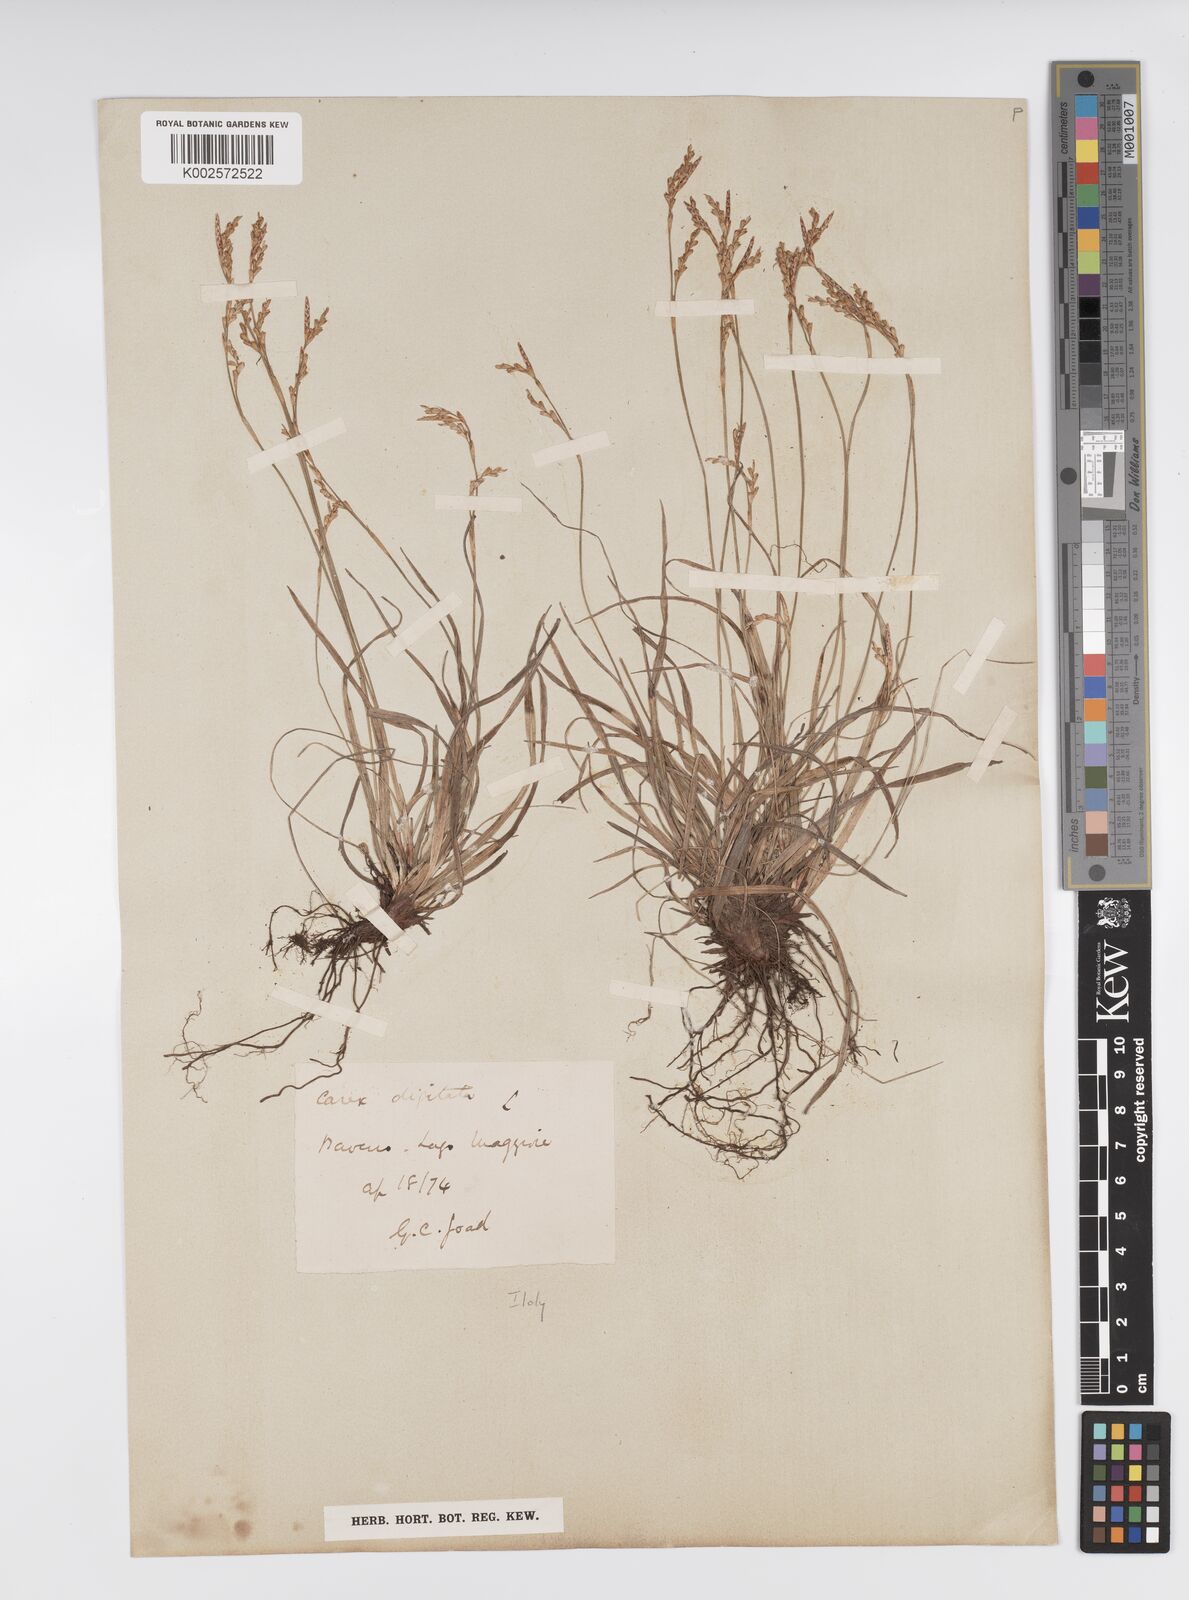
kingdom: Plantae
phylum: Tracheophyta
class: Liliopsida
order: Poales
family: Cyperaceae
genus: Carex
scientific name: Carex digitata
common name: Fingered sedge
